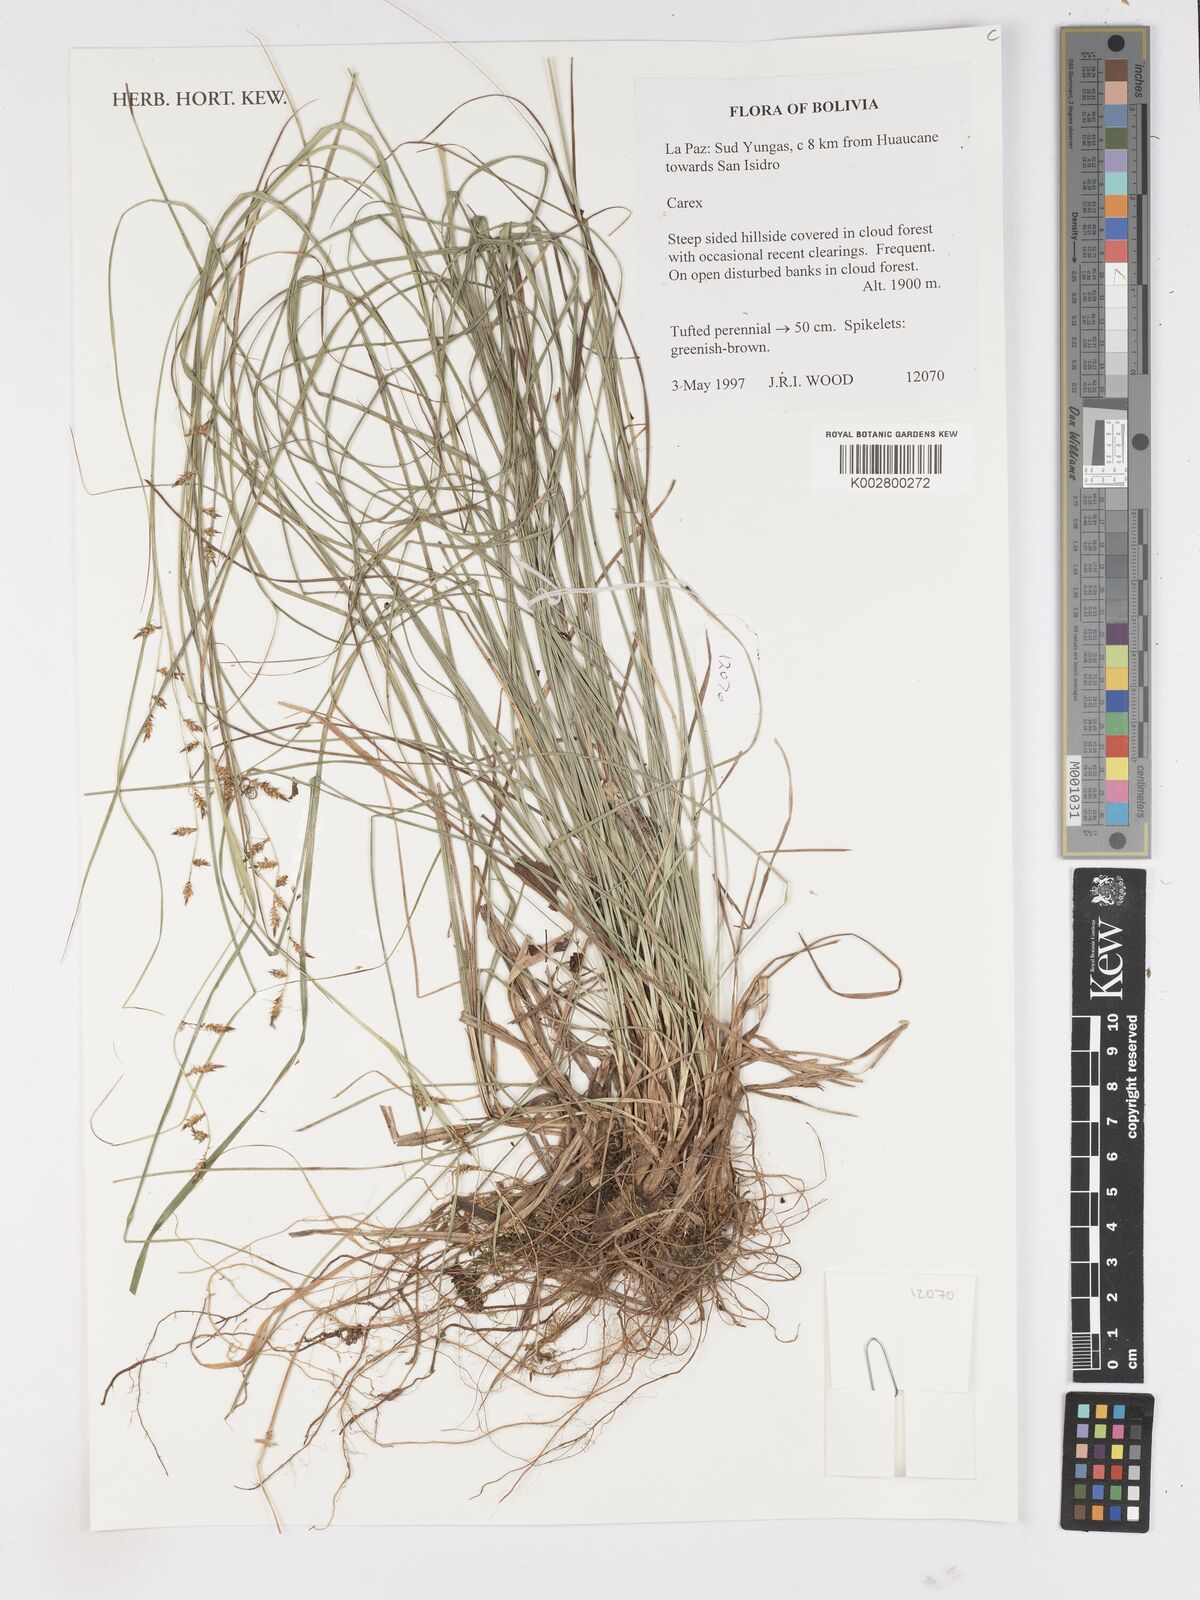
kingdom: Plantae
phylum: Tracheophyta
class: Liliopsida
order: Poales
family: Cyperaceae
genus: Carex
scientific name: Carex
